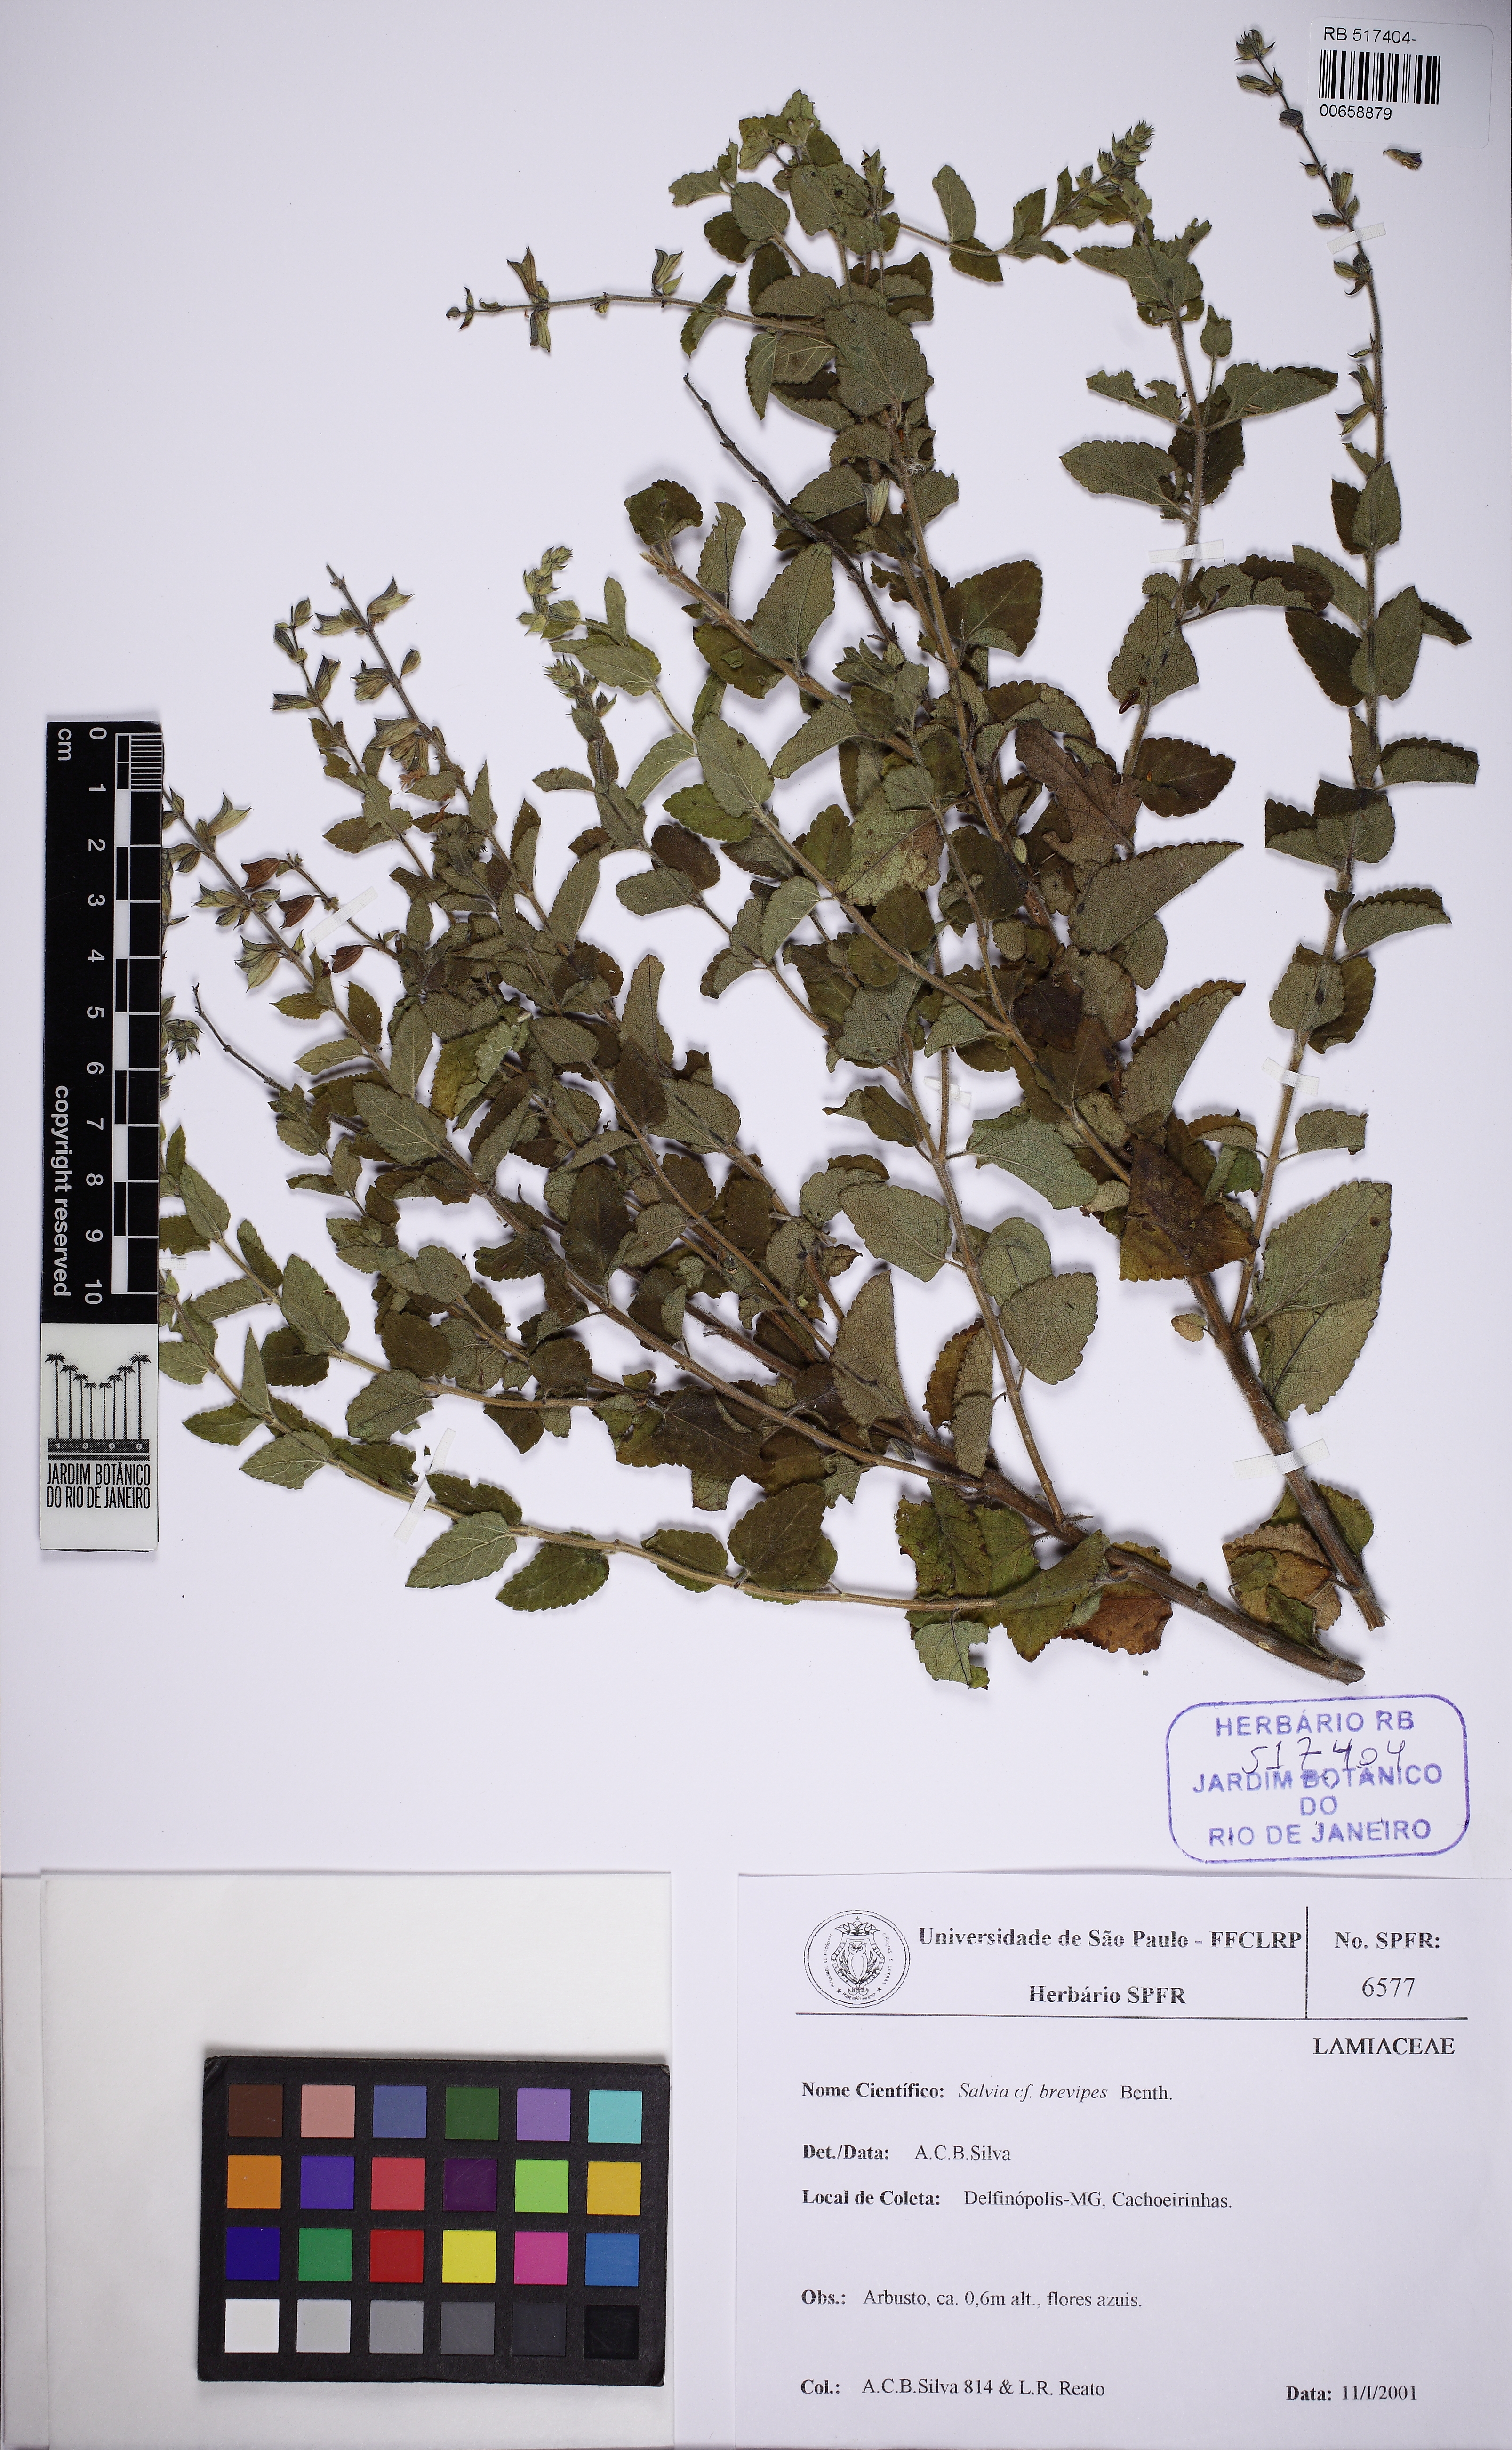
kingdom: Plantae
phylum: Tracheophyta
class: Magnoliopsida
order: Lamiales
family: Lamiaceae
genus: Salvia
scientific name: Salvia brevipes
